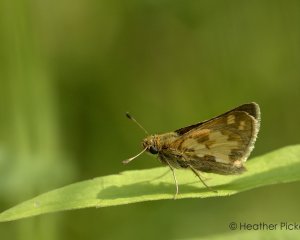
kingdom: Animalia
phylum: Arthropoda
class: Insecta
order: Lepidoptera
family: Hesperiidae
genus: Polites
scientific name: Polites coras
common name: Peck's Skipper
